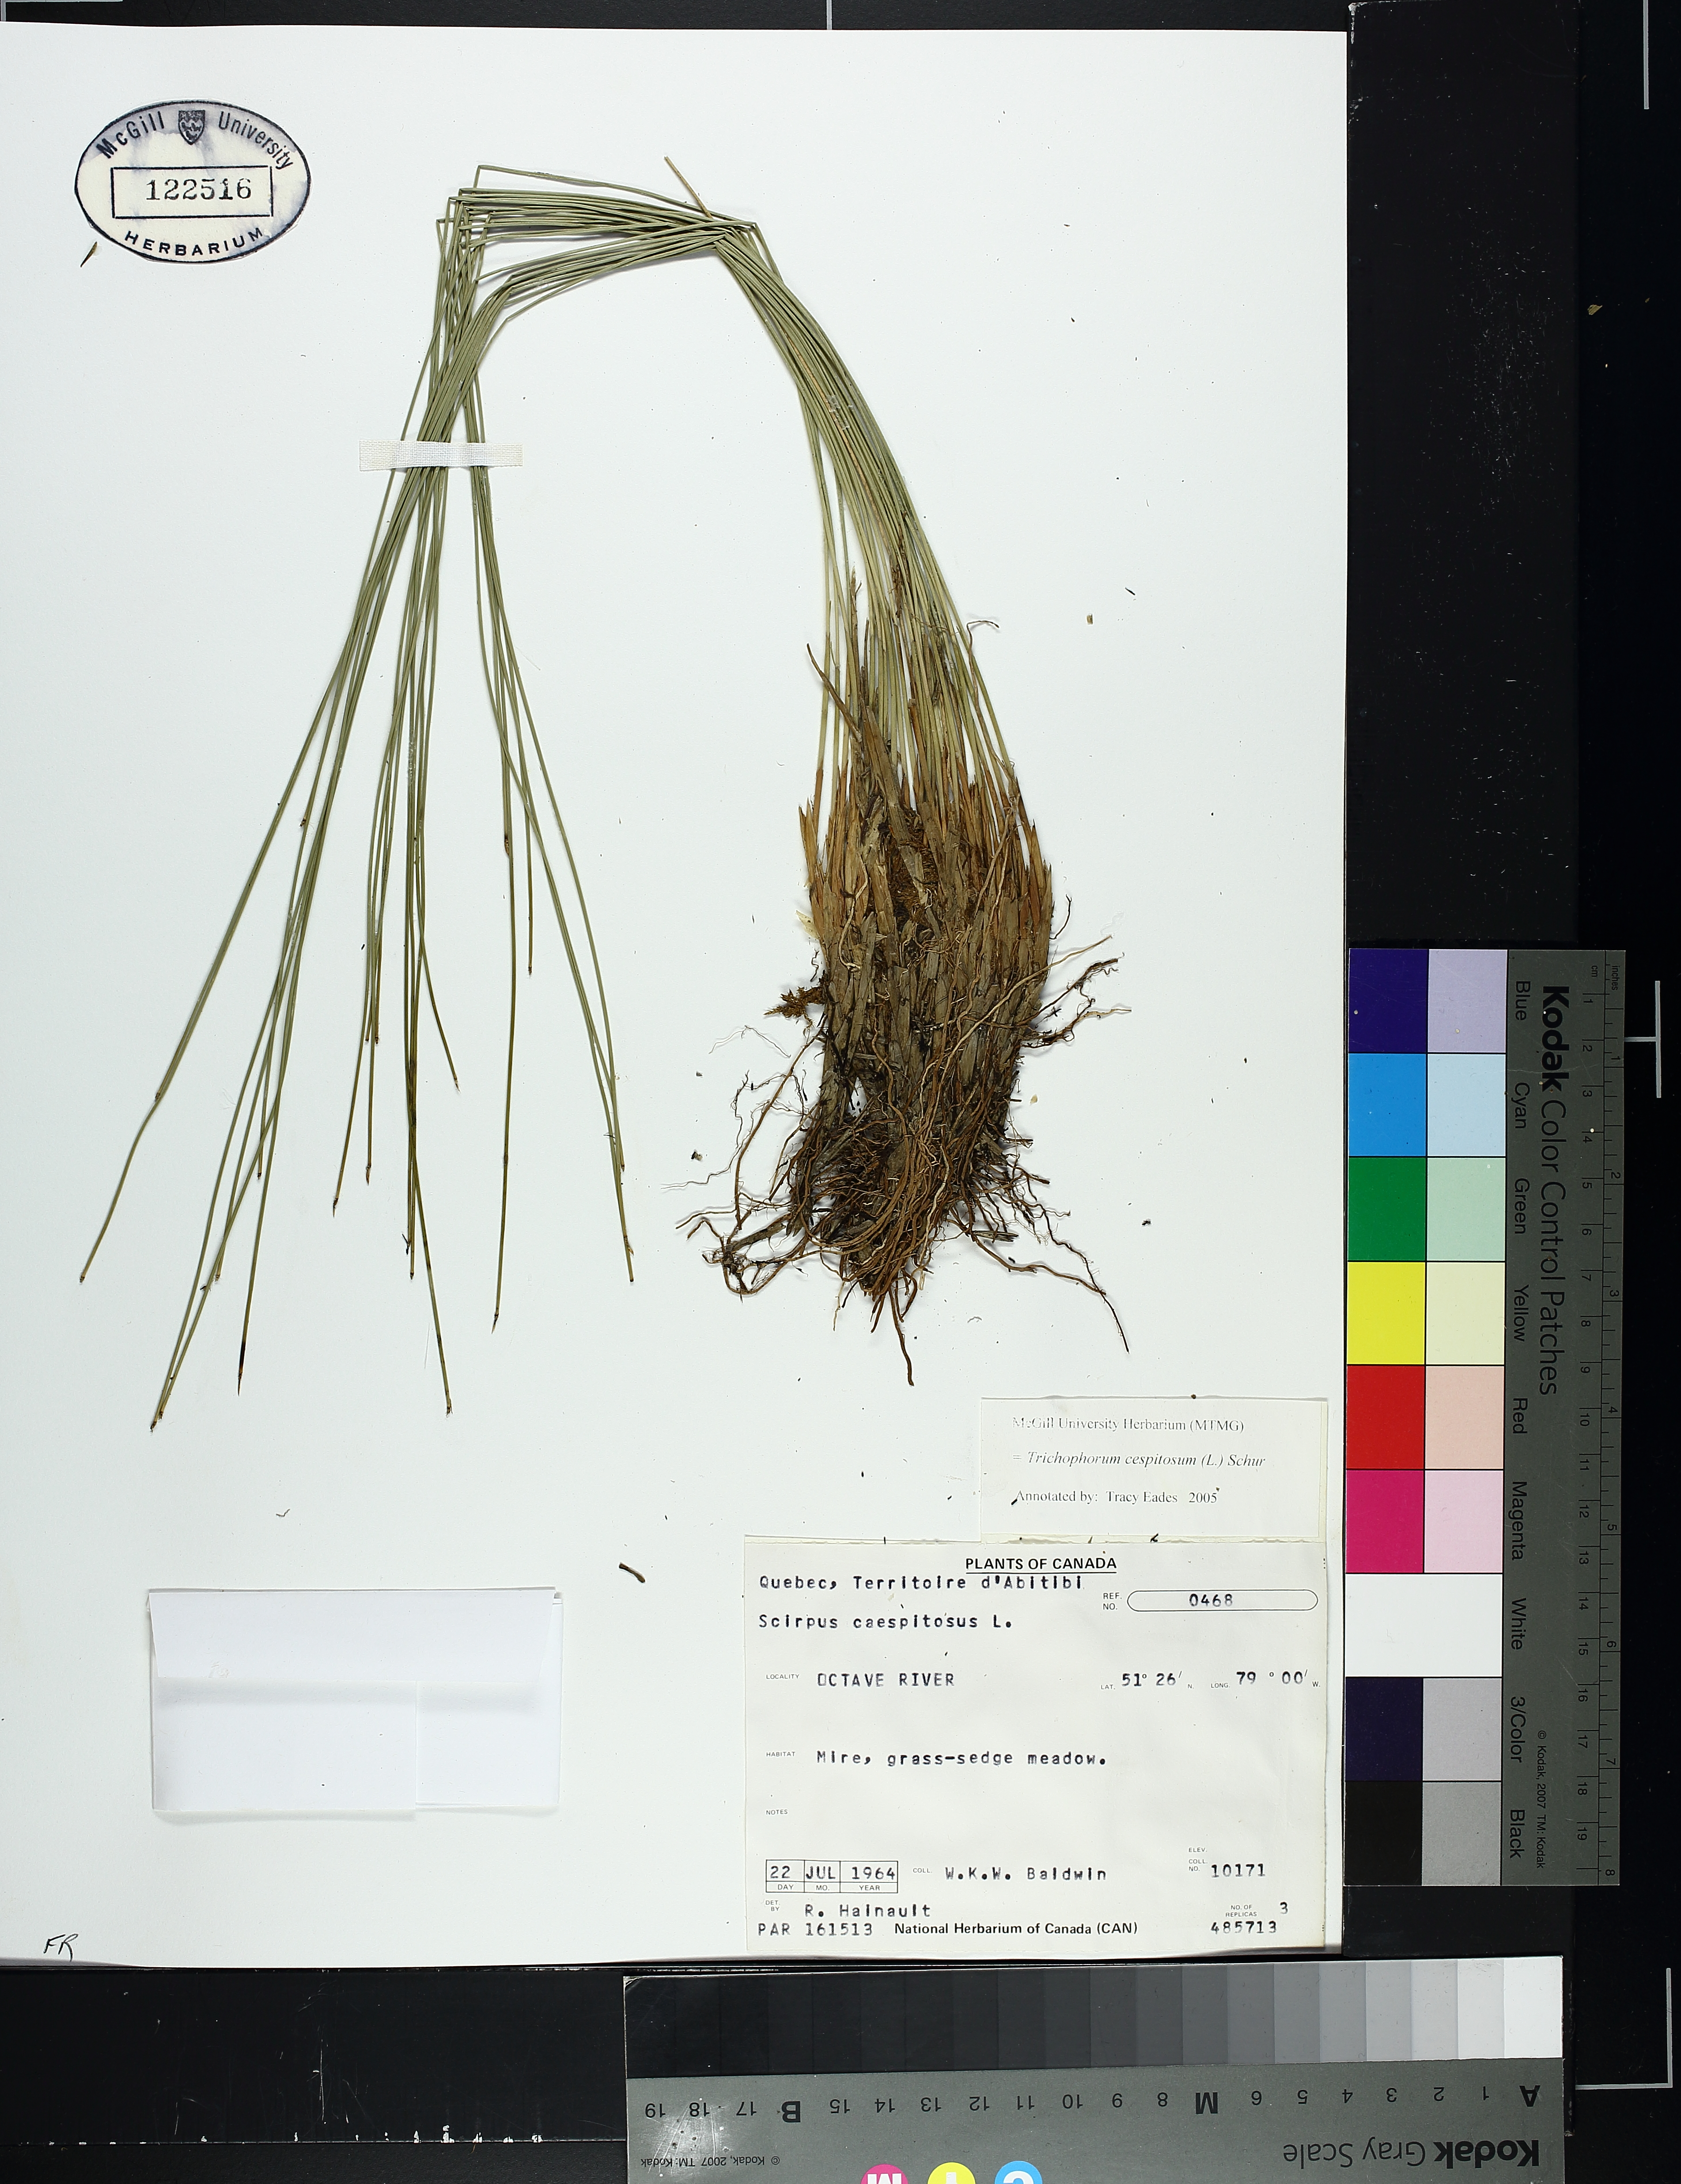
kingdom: Plantae
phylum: Tracheophyta
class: Liliopsida
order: Poales
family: Cyperaceae
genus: Trichophorum
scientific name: Trichophorum cespitosum
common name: Cespitose bulrush
